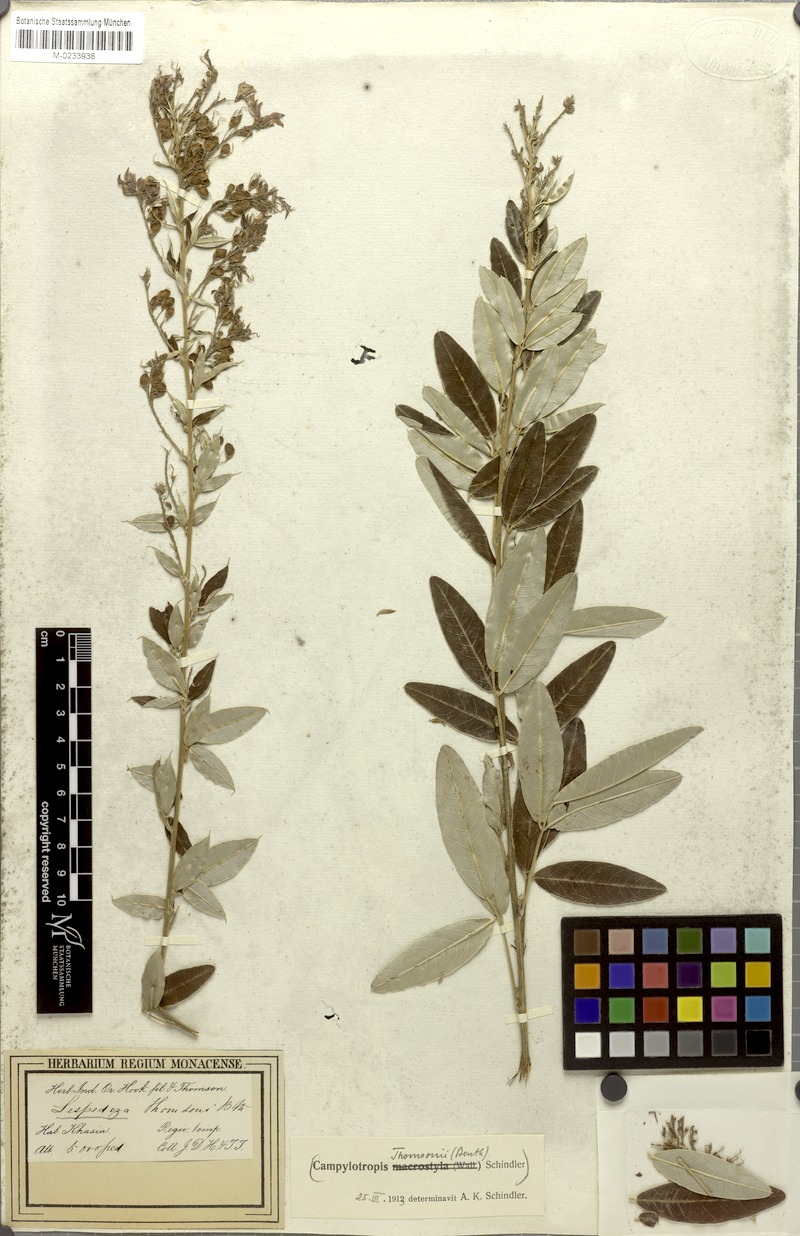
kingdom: Plantae
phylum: Tracheophyta
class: Magnoliopsida
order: Fabales
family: Fabaceae
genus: Campylotropis
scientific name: Campylotropis thomsonii
